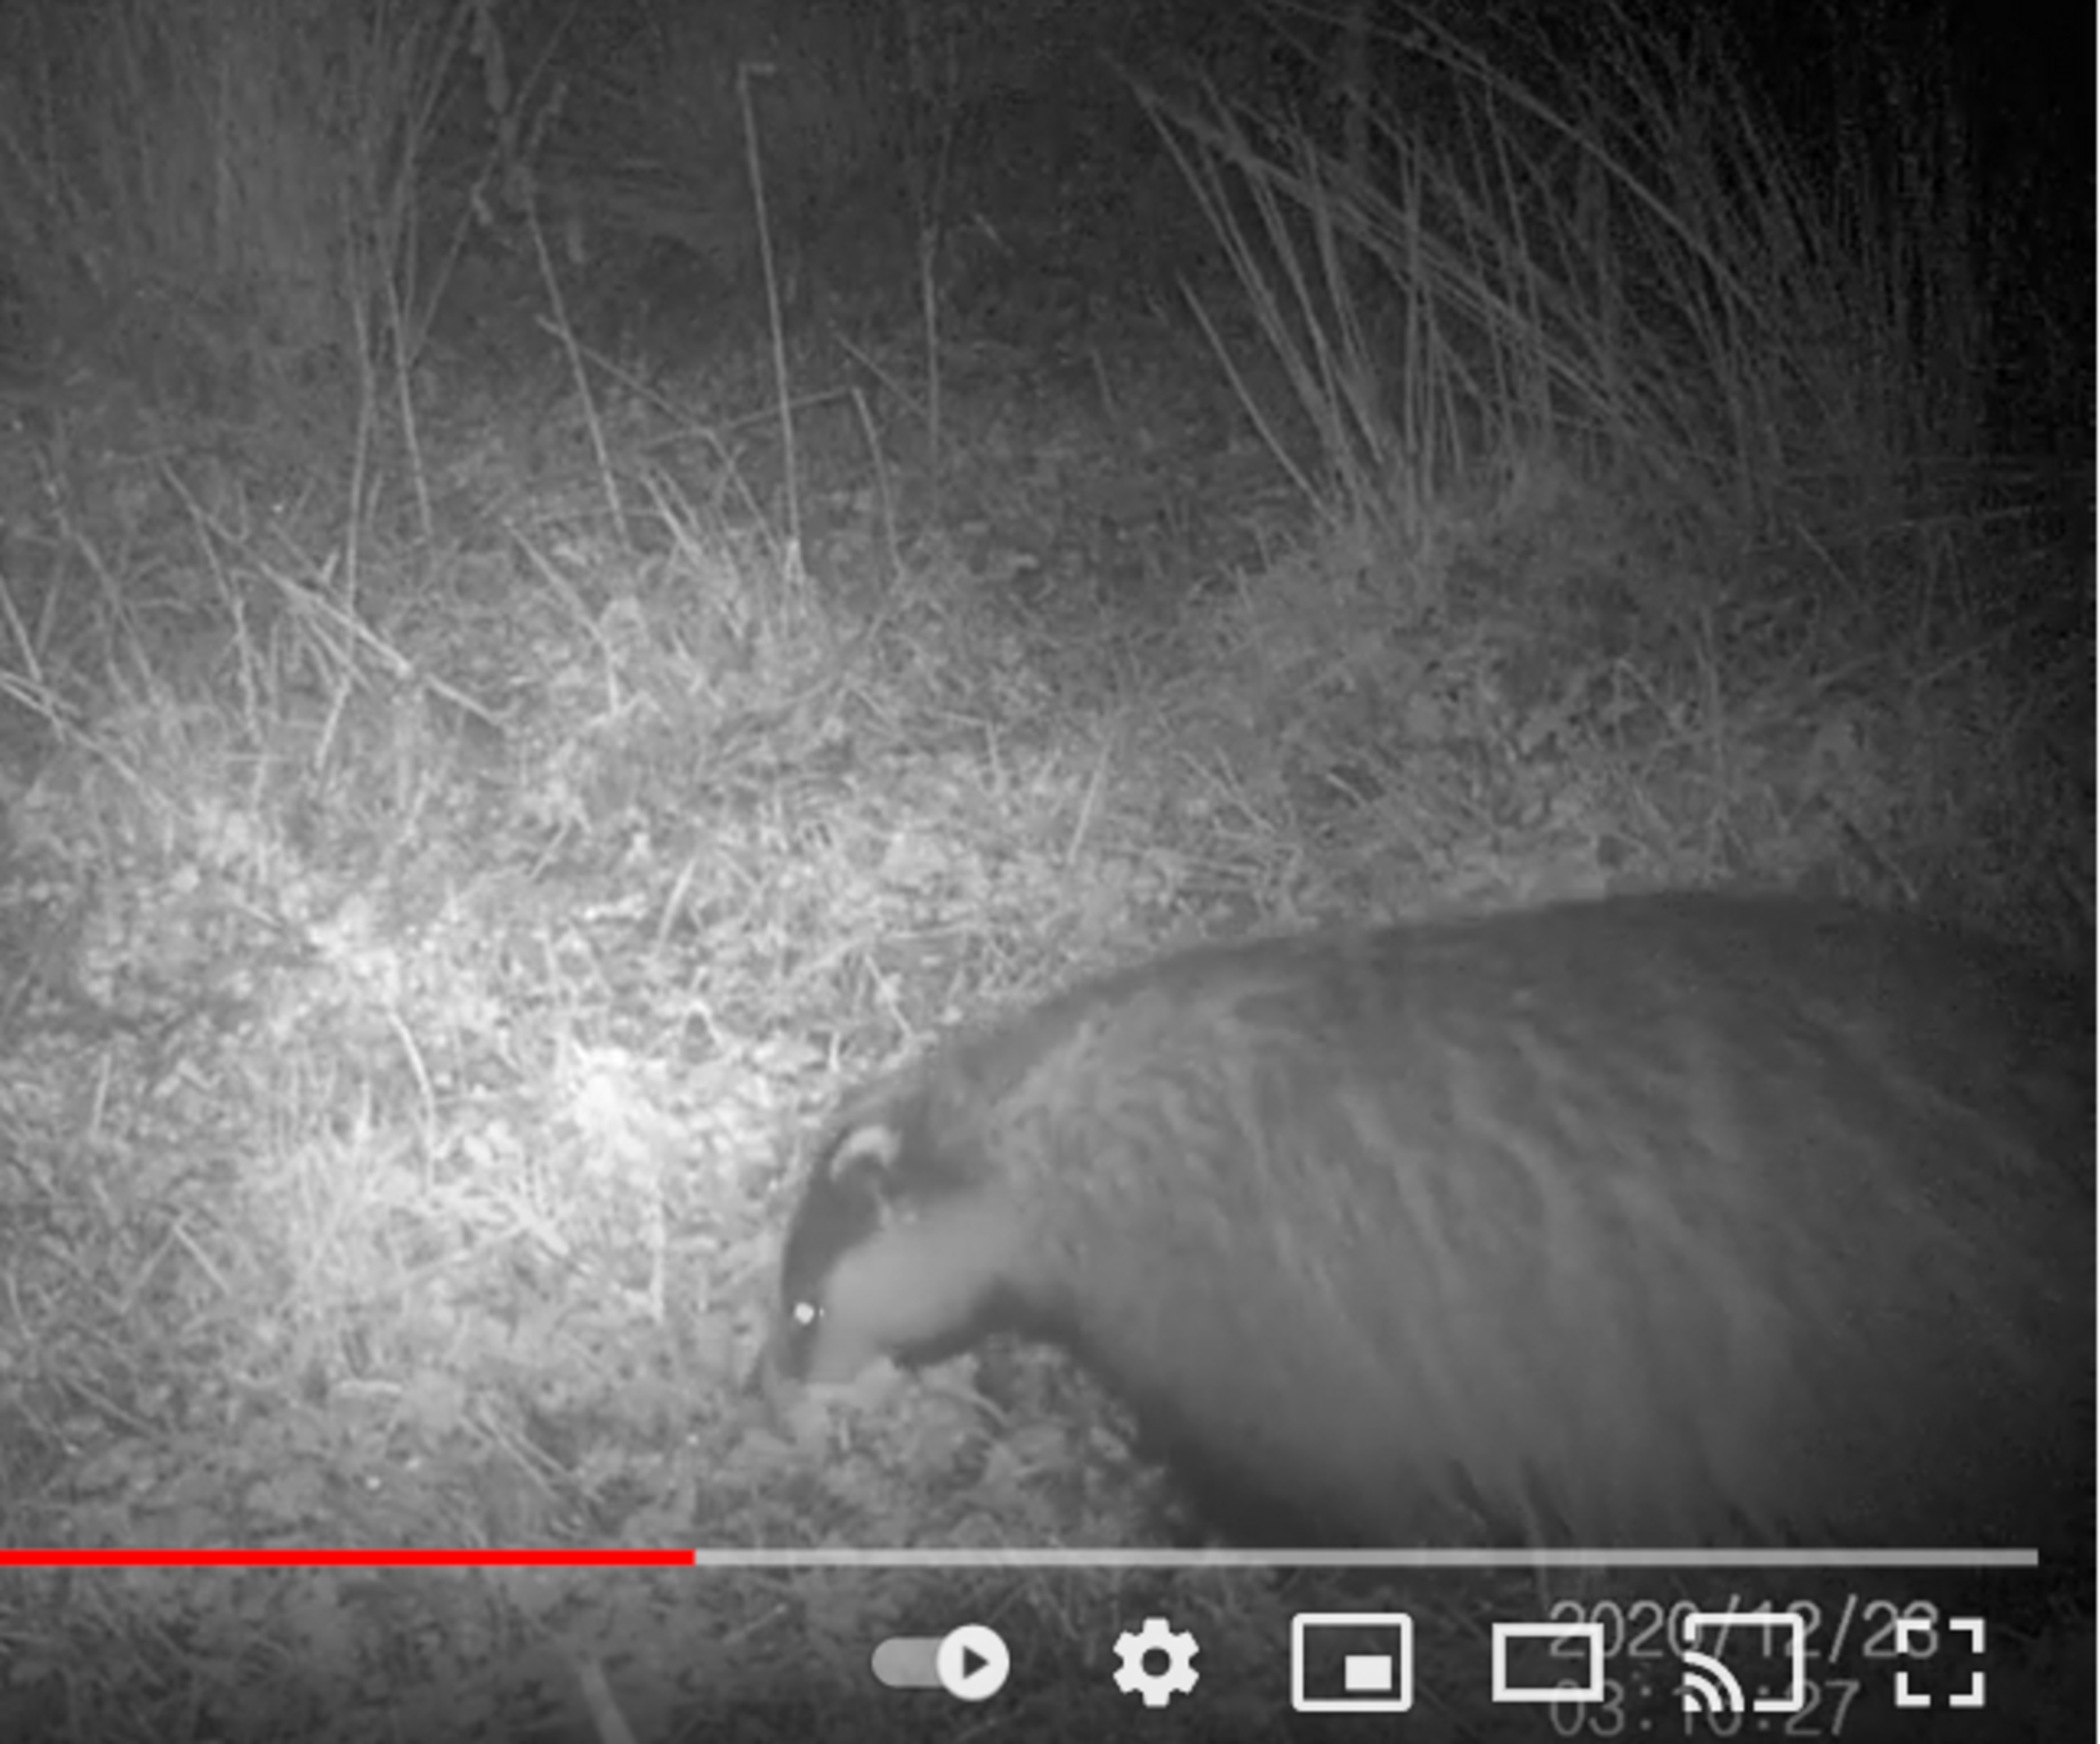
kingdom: Animalia
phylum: Chordata
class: Mammalia
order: Carnivora
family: Mustelidae
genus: Meles
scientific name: Meles meles
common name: Grævling
